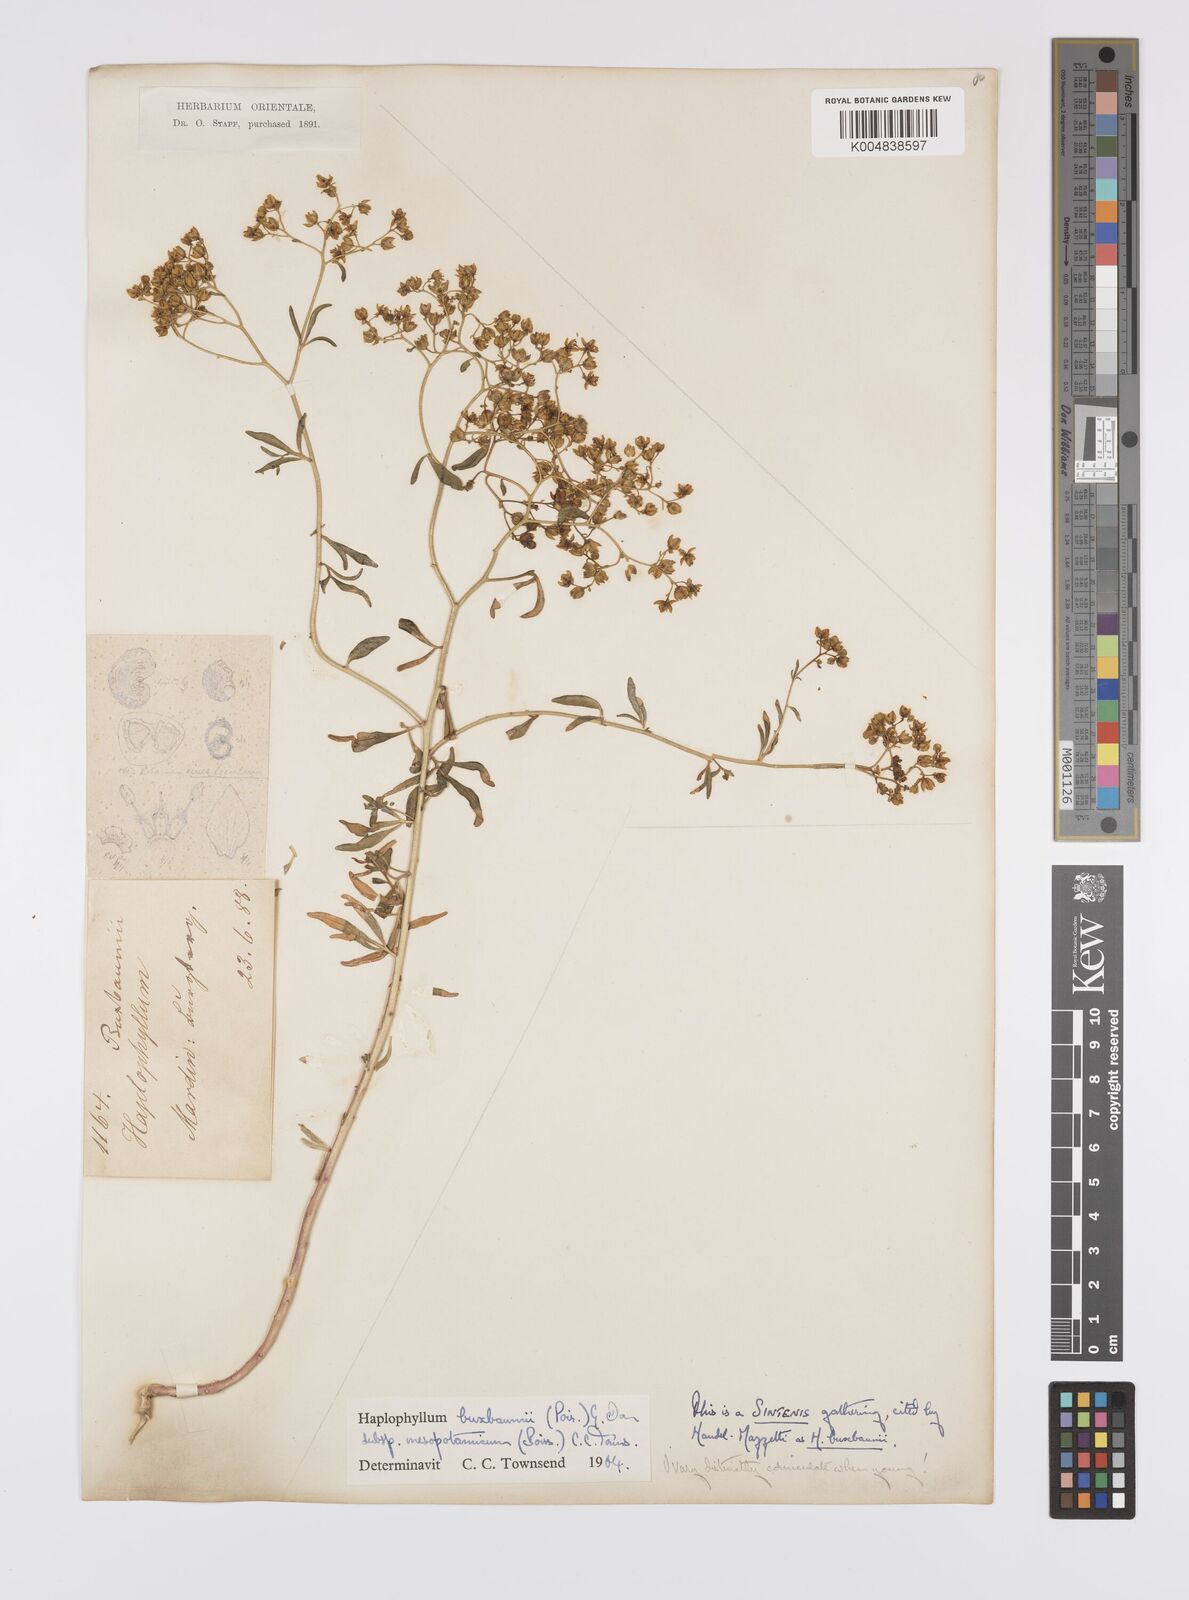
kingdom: Plantae
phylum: Tracheophyta
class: Magnoliopsida
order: Sapindales
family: Rutaceae
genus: Haplophyllum
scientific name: Haplophyllum buxbaumii
